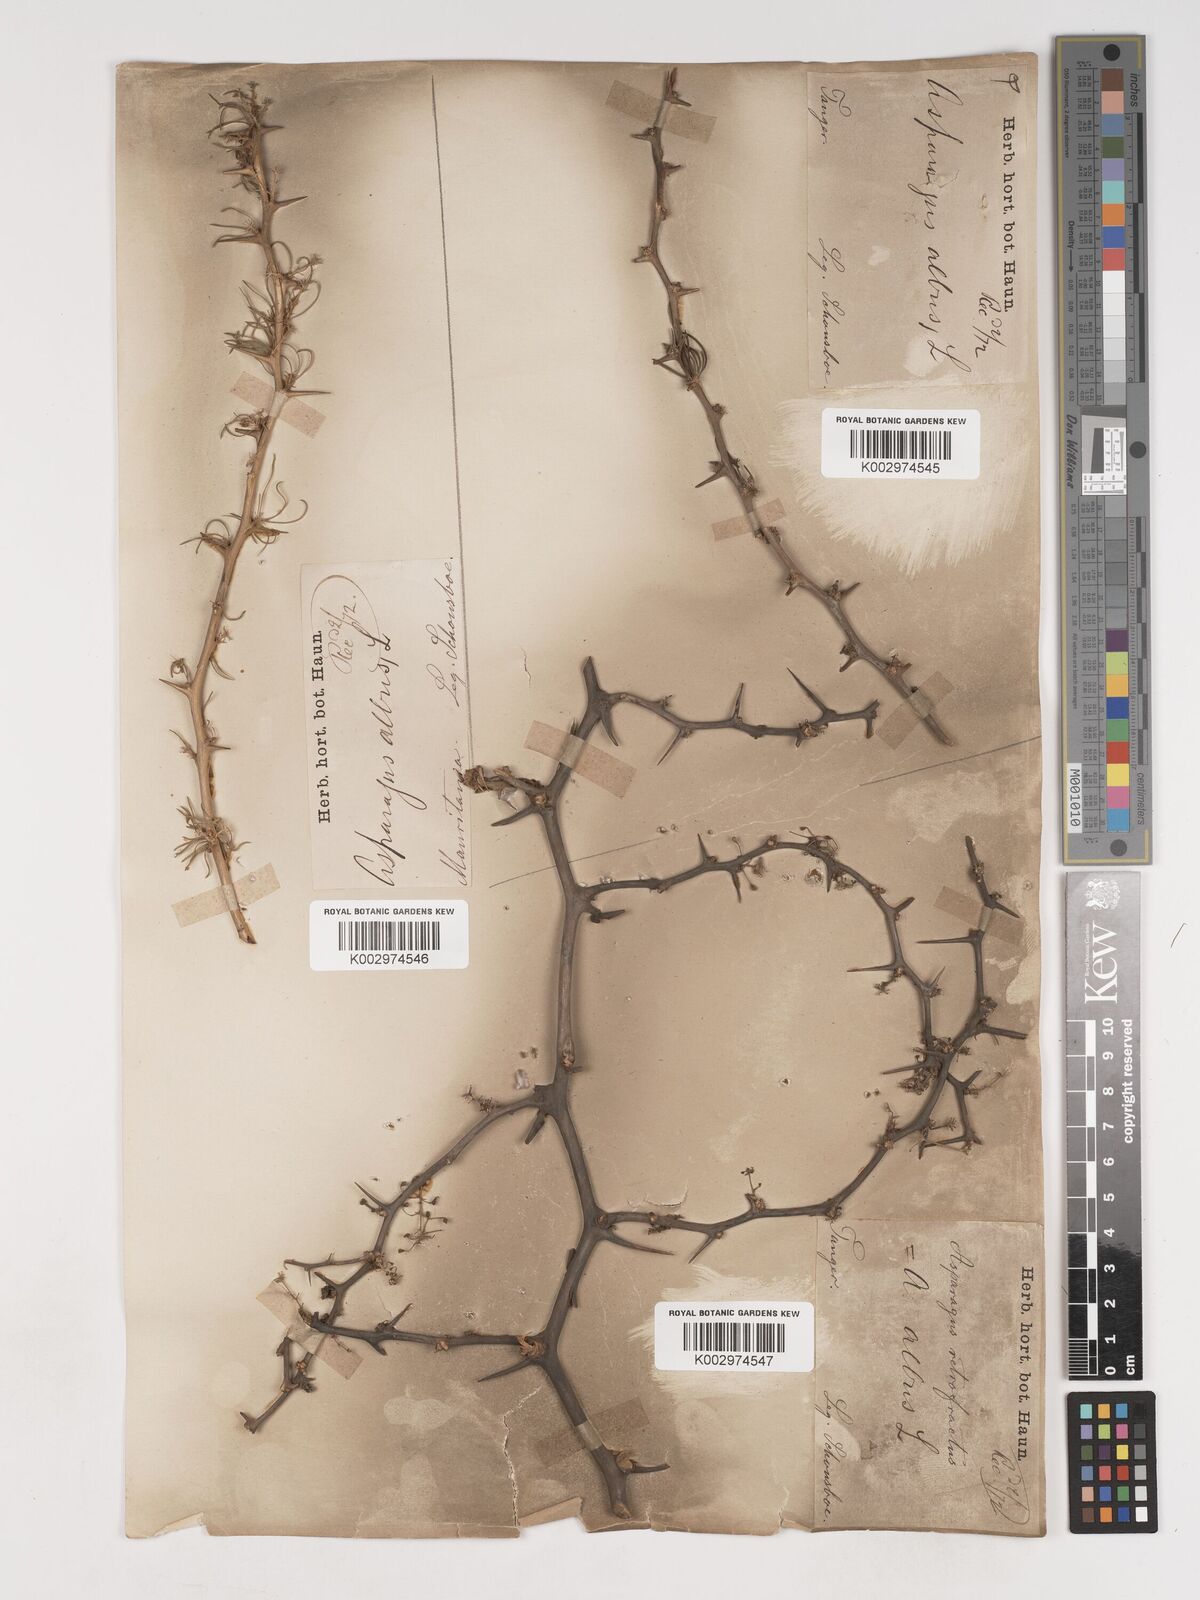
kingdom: Plantae
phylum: Tracheophyta
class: Liliopsida
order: Asparagales
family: Asparagaceae
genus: Asparagus
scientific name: Asparagus albus
